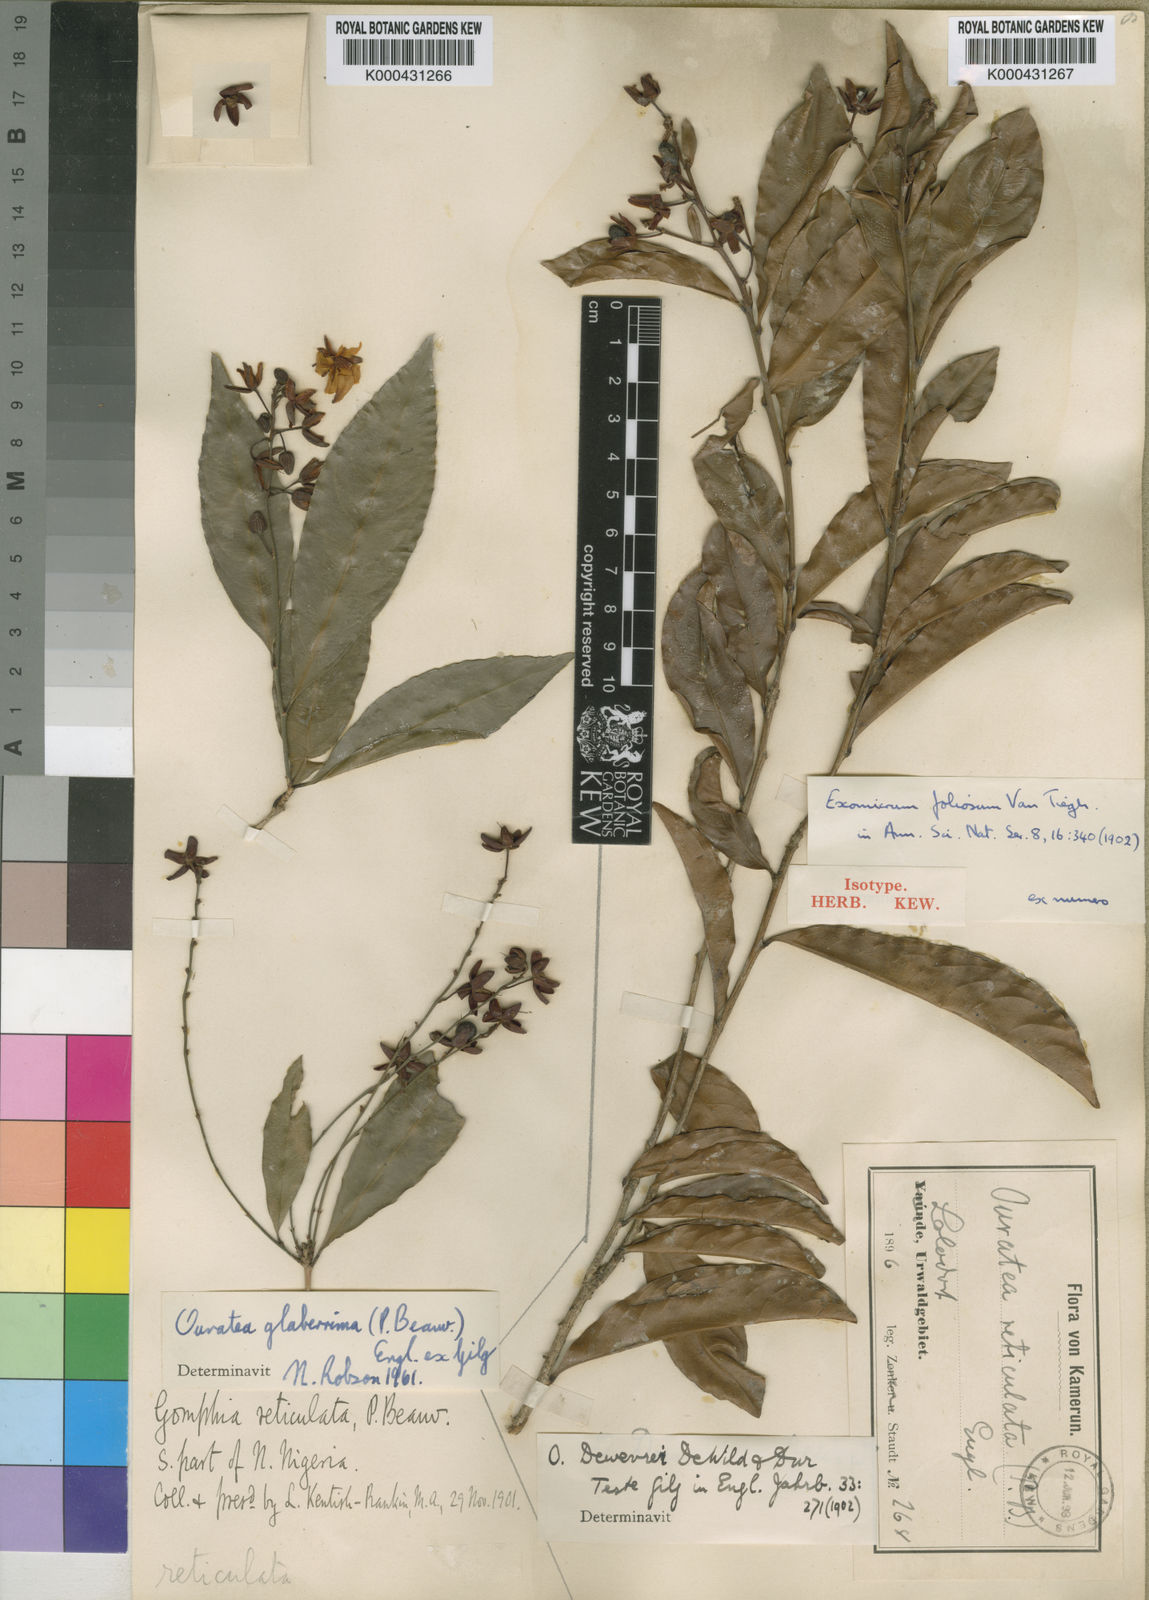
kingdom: Plantae
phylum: Tracheophyta
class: Magnoliopsida
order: Malpighiales
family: Ochnaceae
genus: Campylospermum
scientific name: Campylospermum vogelii
